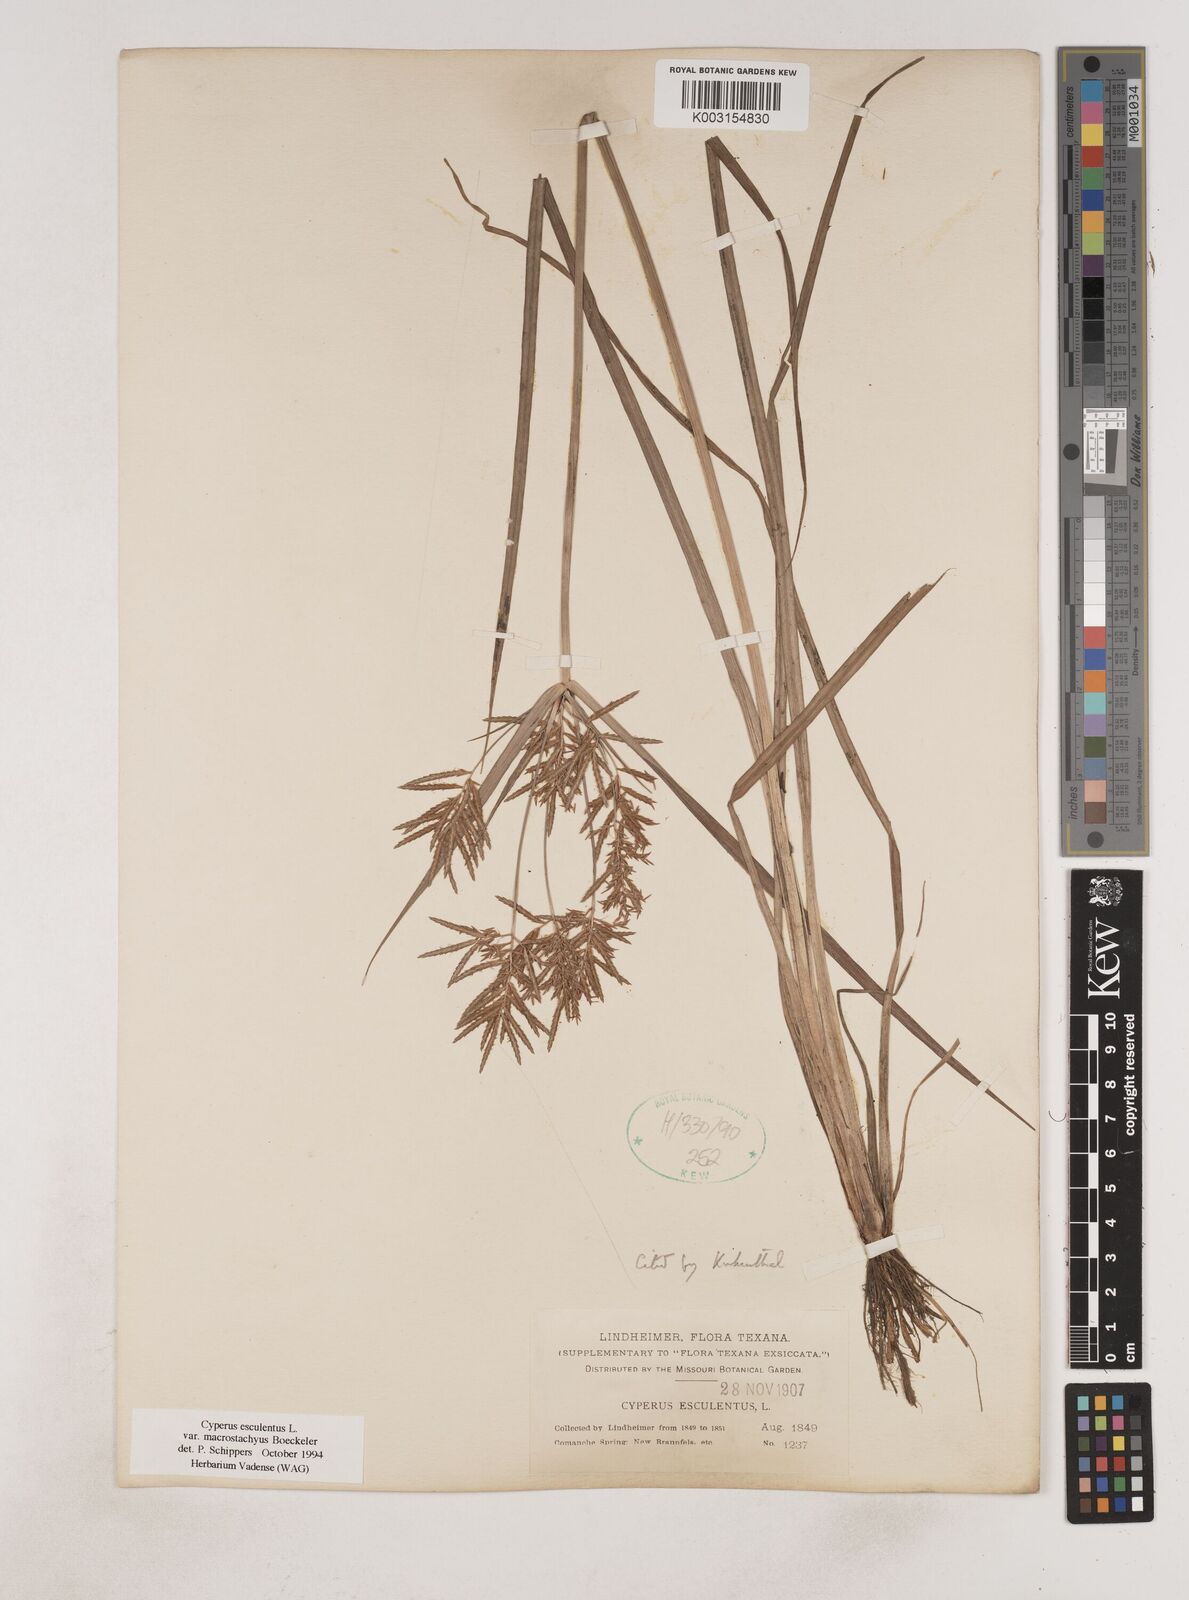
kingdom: Plantae
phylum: Tracheophyta
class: Liliopsida
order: Poales
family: Cyperaceae
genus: Cyperus
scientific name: Cyperus esculentus
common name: Yellow nutsedge
